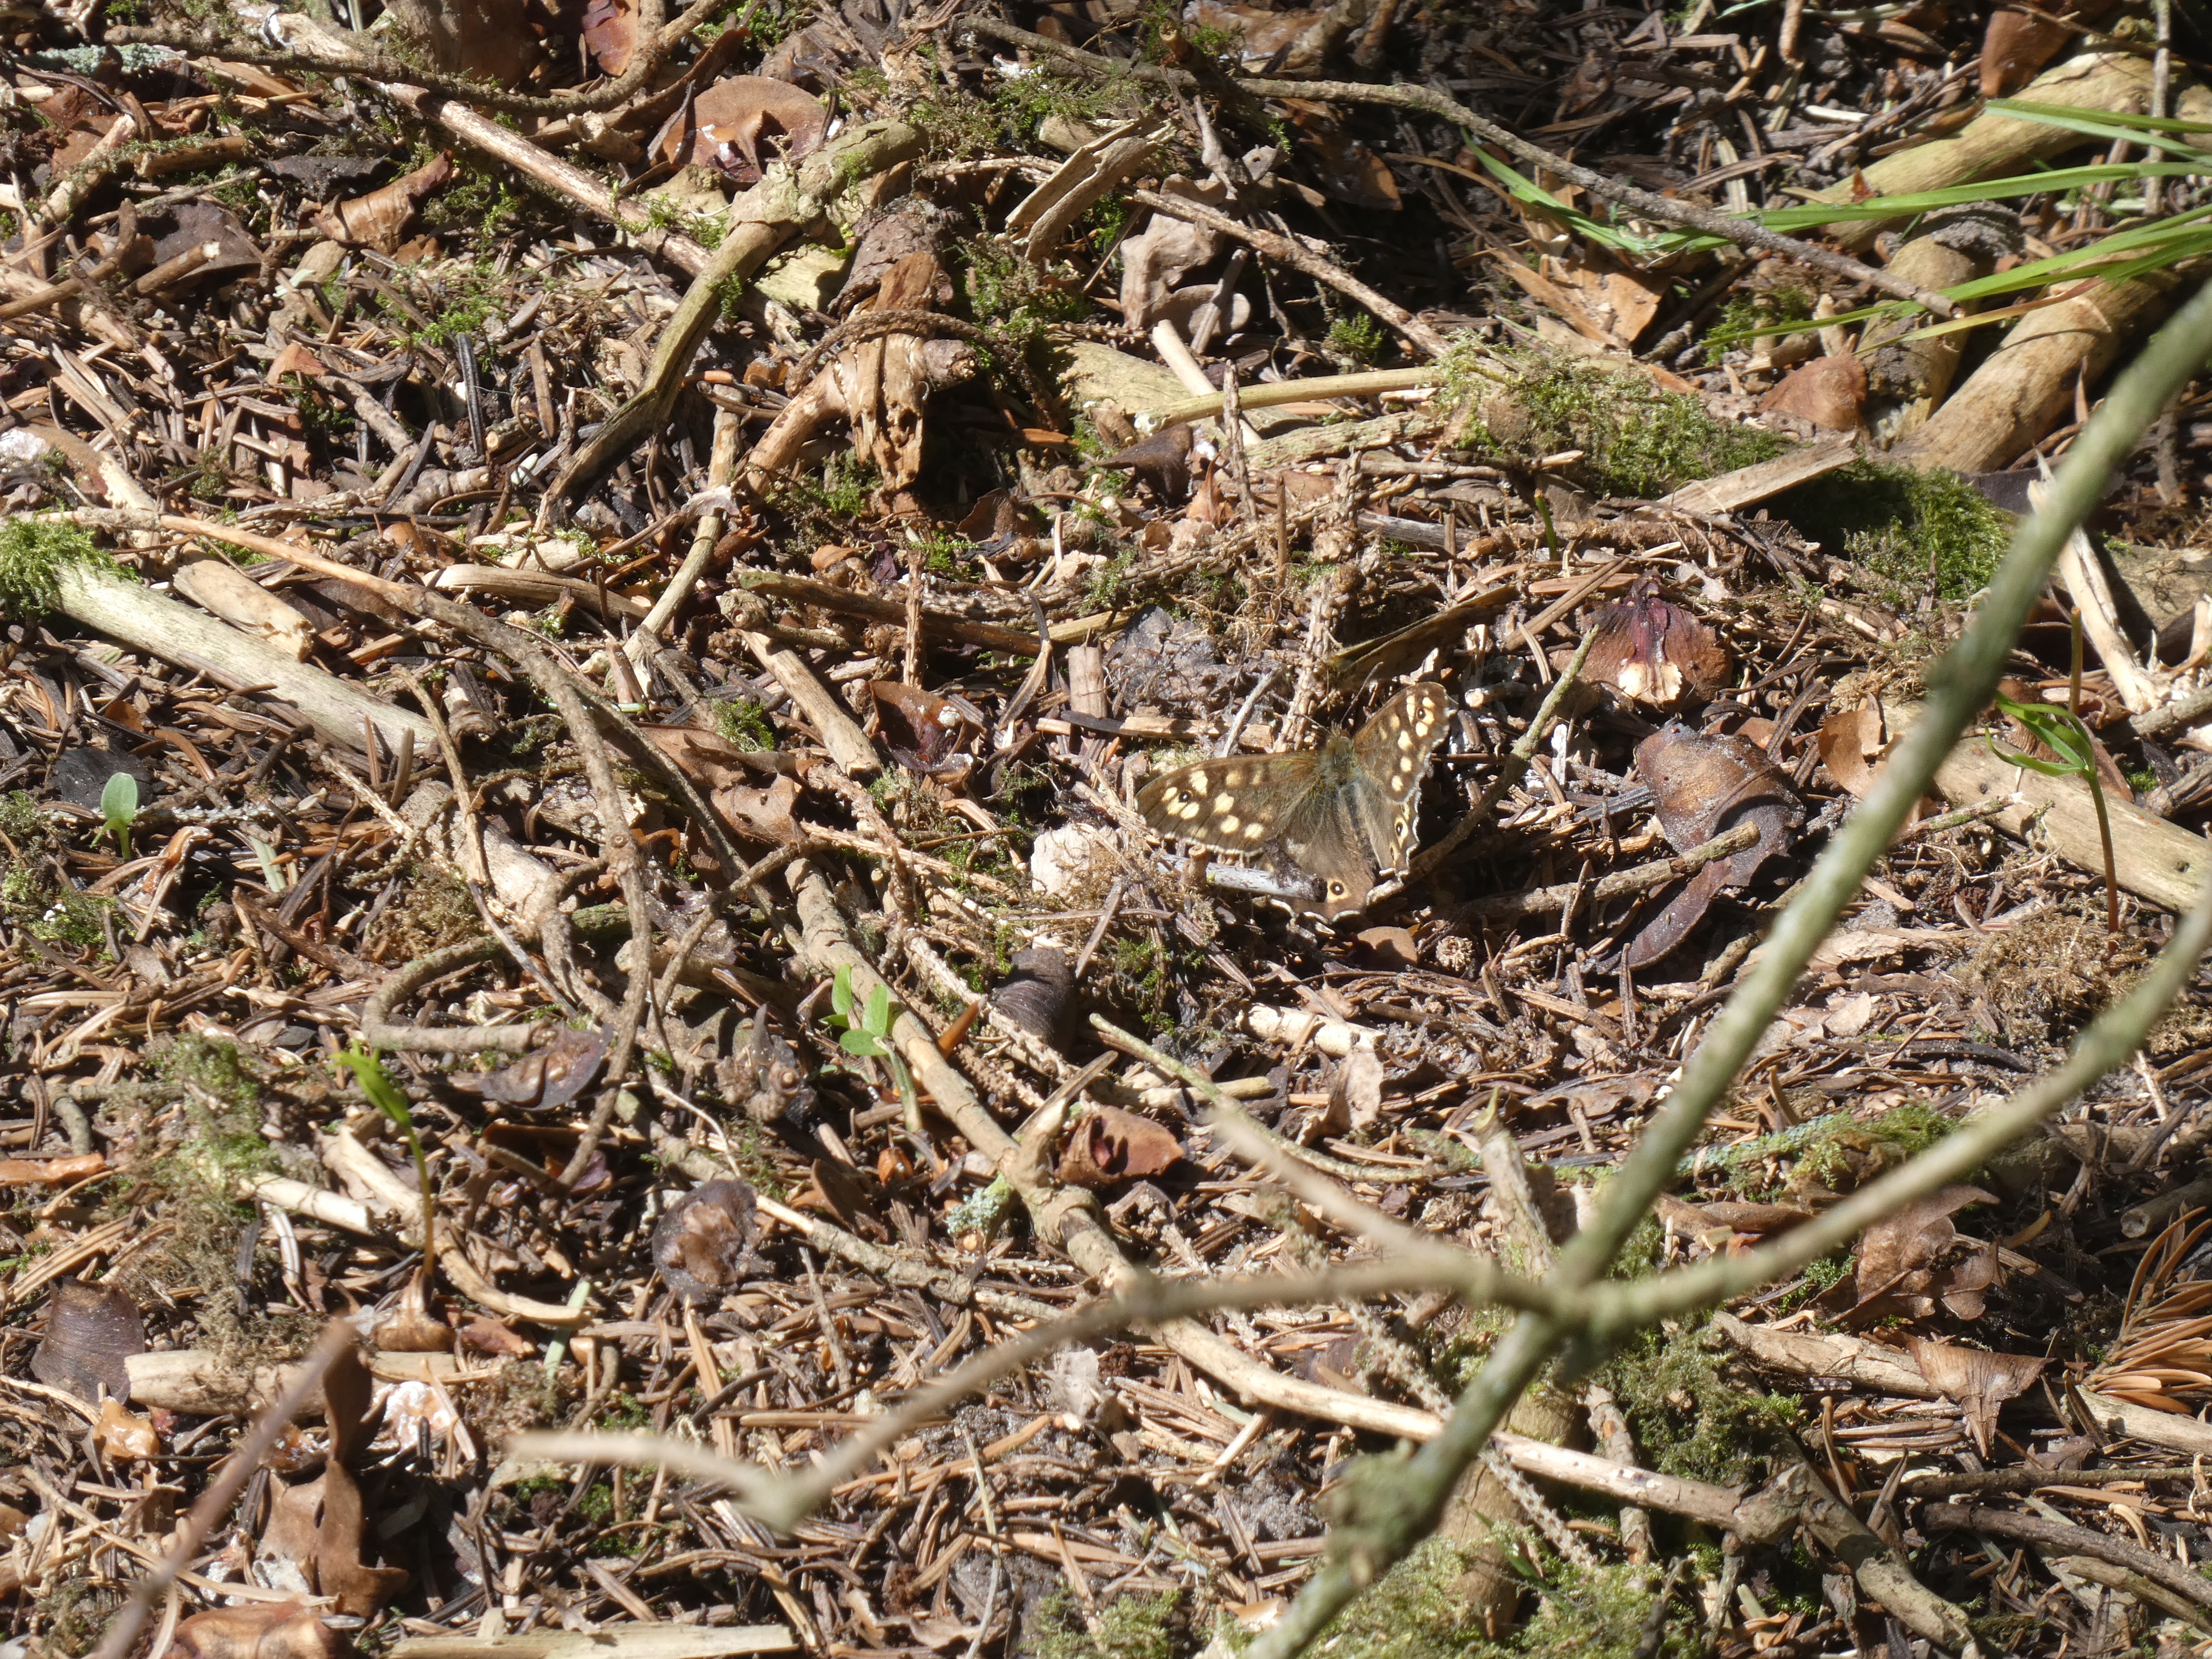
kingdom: Animalia
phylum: Arthropoda
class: Insecta
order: Lepidoptera
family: Nymphalidae
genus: Pararge
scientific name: Pararge aegeria
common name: Skovrandøje
